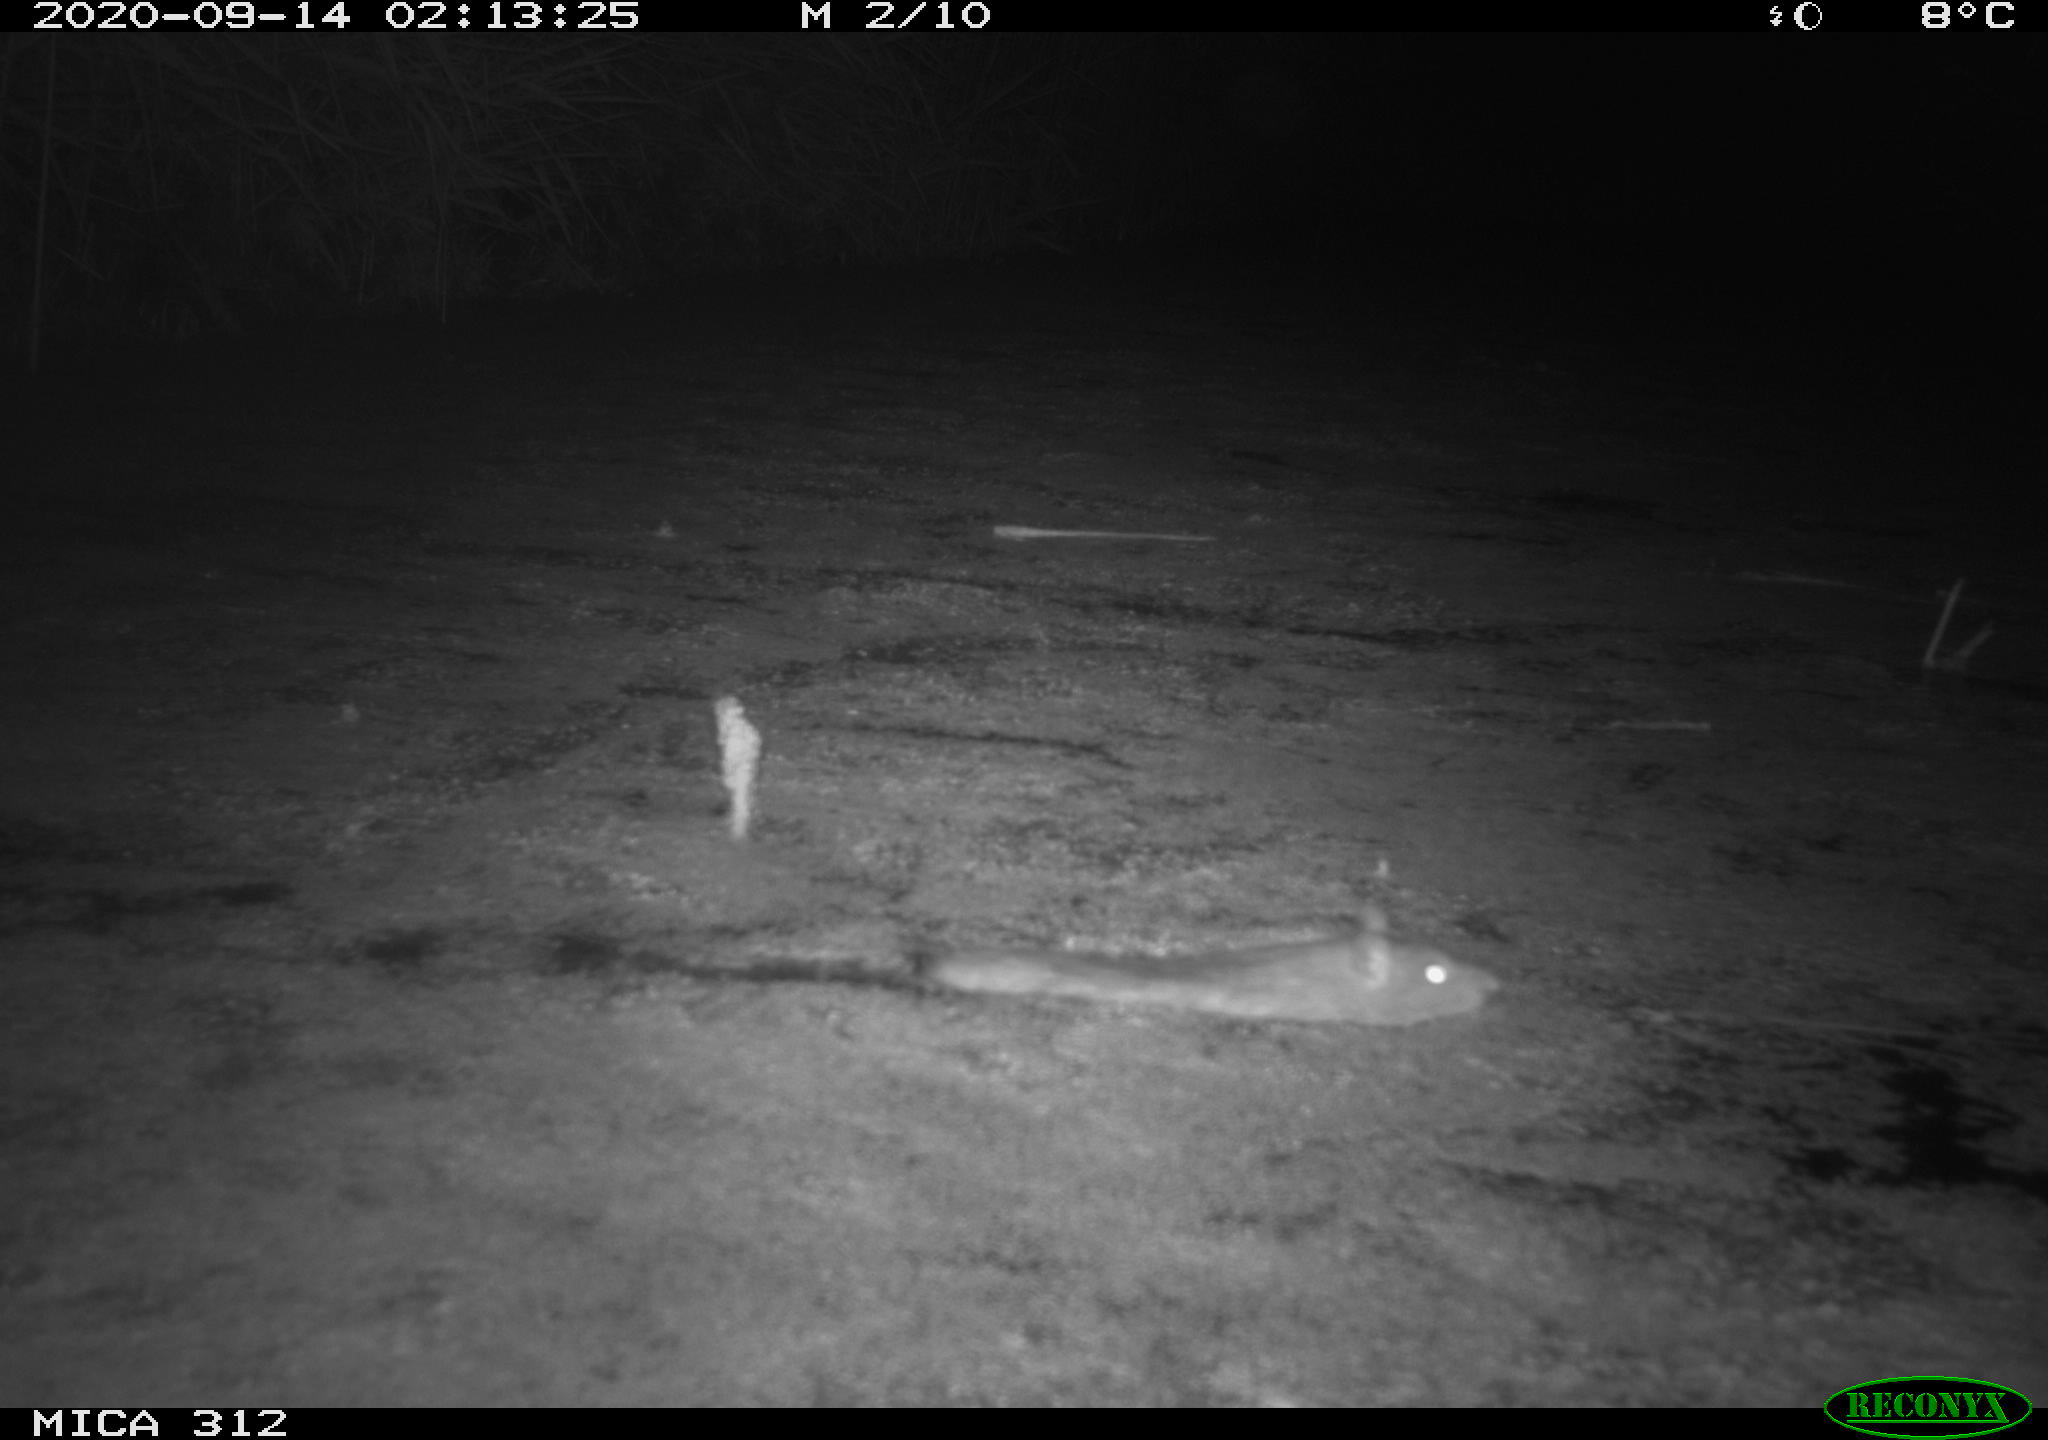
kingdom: Animalia
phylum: Chordata
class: Mammalia
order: Rodentia
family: Muridae
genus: Rattus
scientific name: Rattus norvegicus
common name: Brown rat
